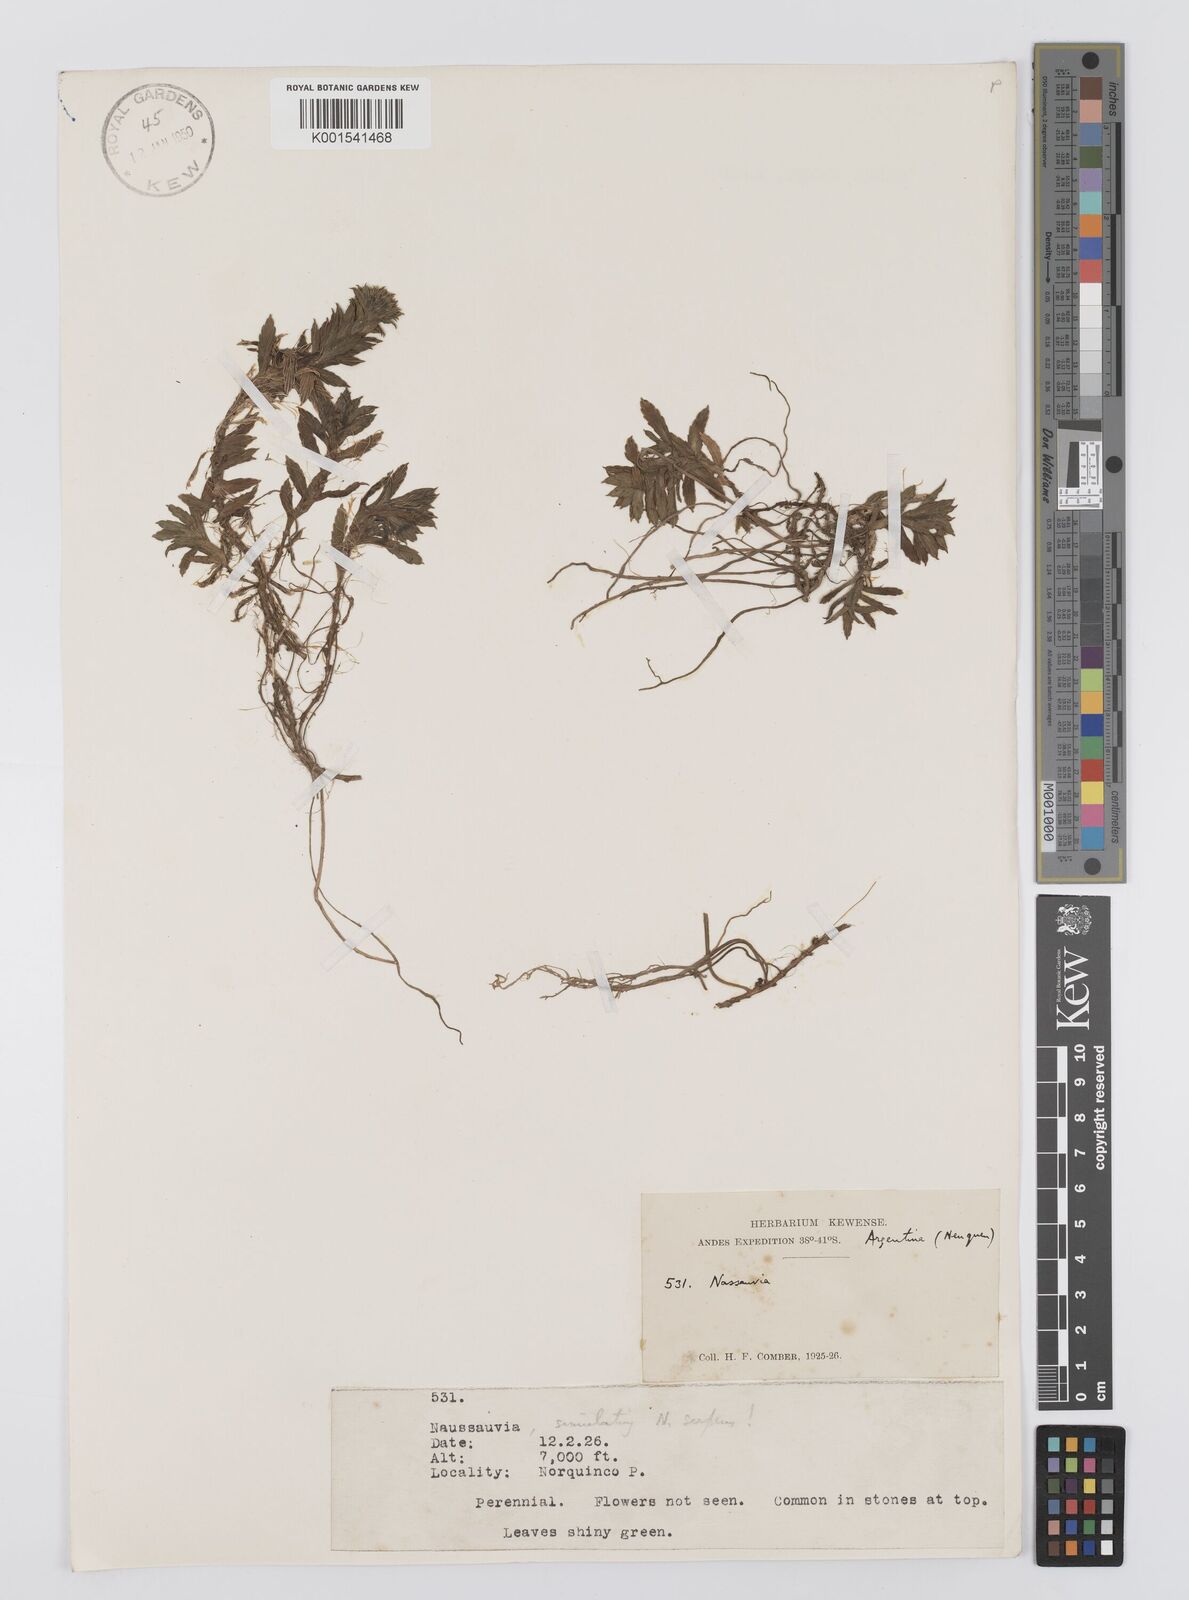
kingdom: Plantae
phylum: Tracheophyta
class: Magnoliopsida
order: Asterales
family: Asteraceae
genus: Nassauvia
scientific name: Nassauvia
